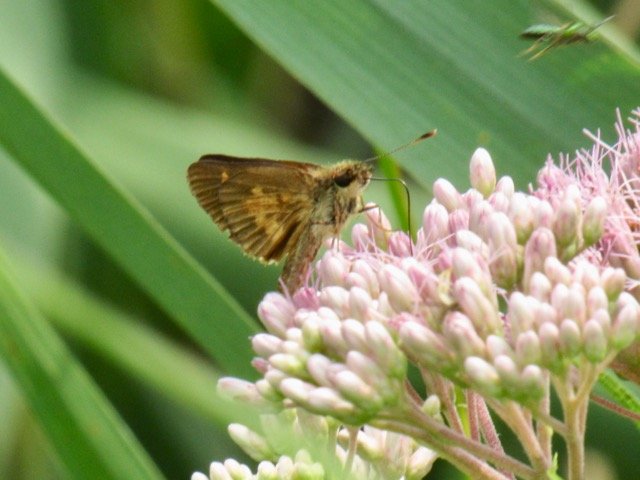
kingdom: Animalia
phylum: Arthropoda
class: Insecta
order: Lepidoptera
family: Hesperiidae
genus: Euphyes
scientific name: Euphyes conspicua
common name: Black Dash
